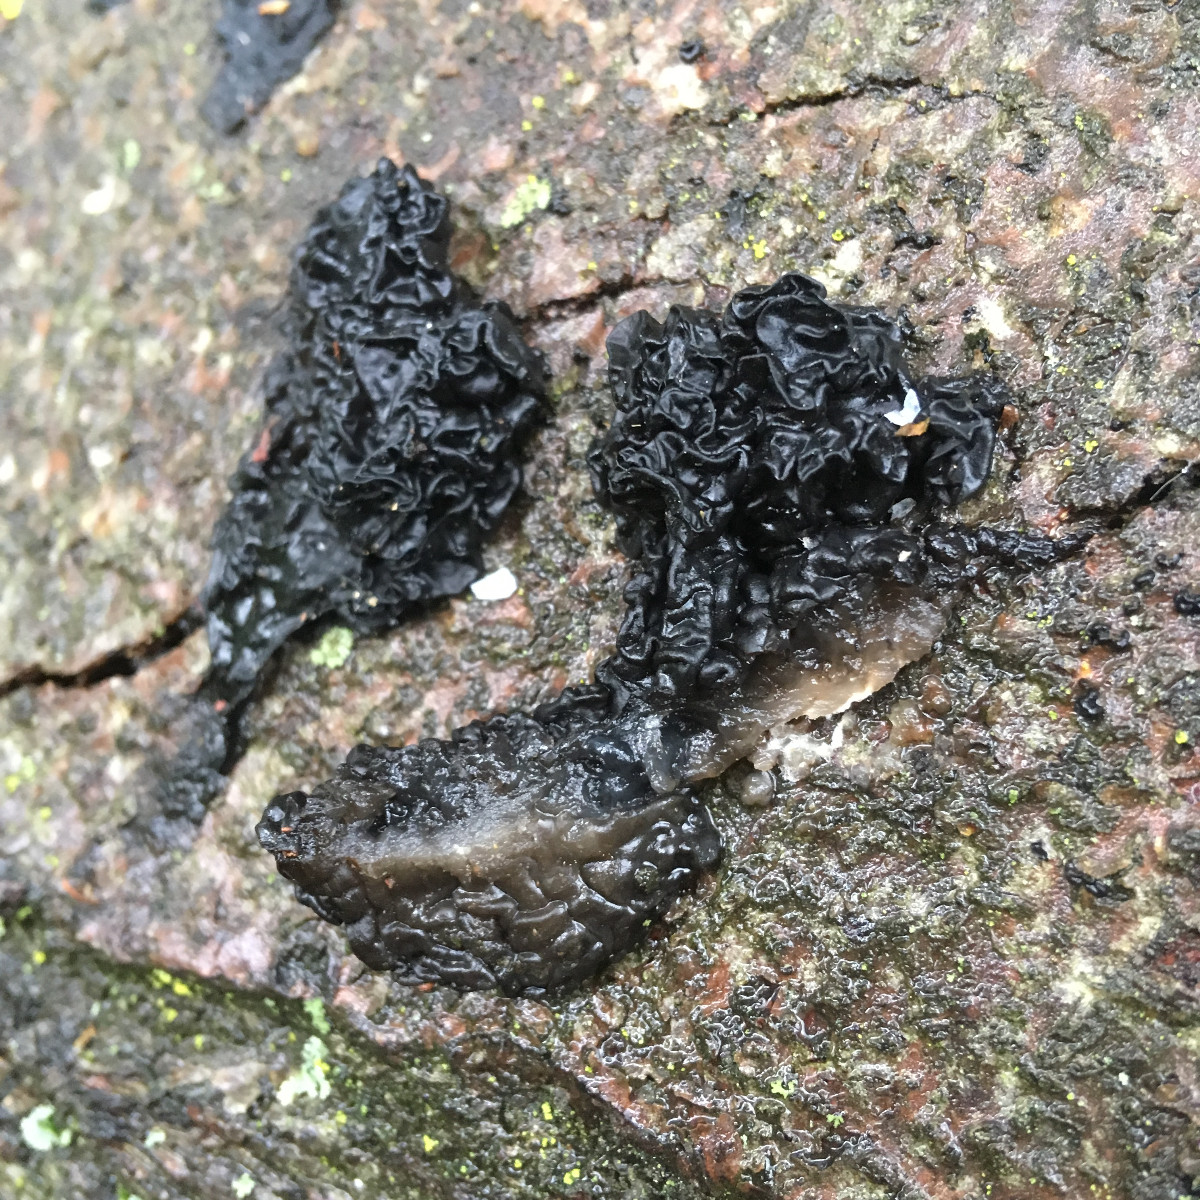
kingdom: Fungi
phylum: Basidiomycota
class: Agaricomycetes
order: Auriculariales
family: Auriculariaceae
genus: Exidia
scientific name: Exidia nigricans
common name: almindelig bævretop
